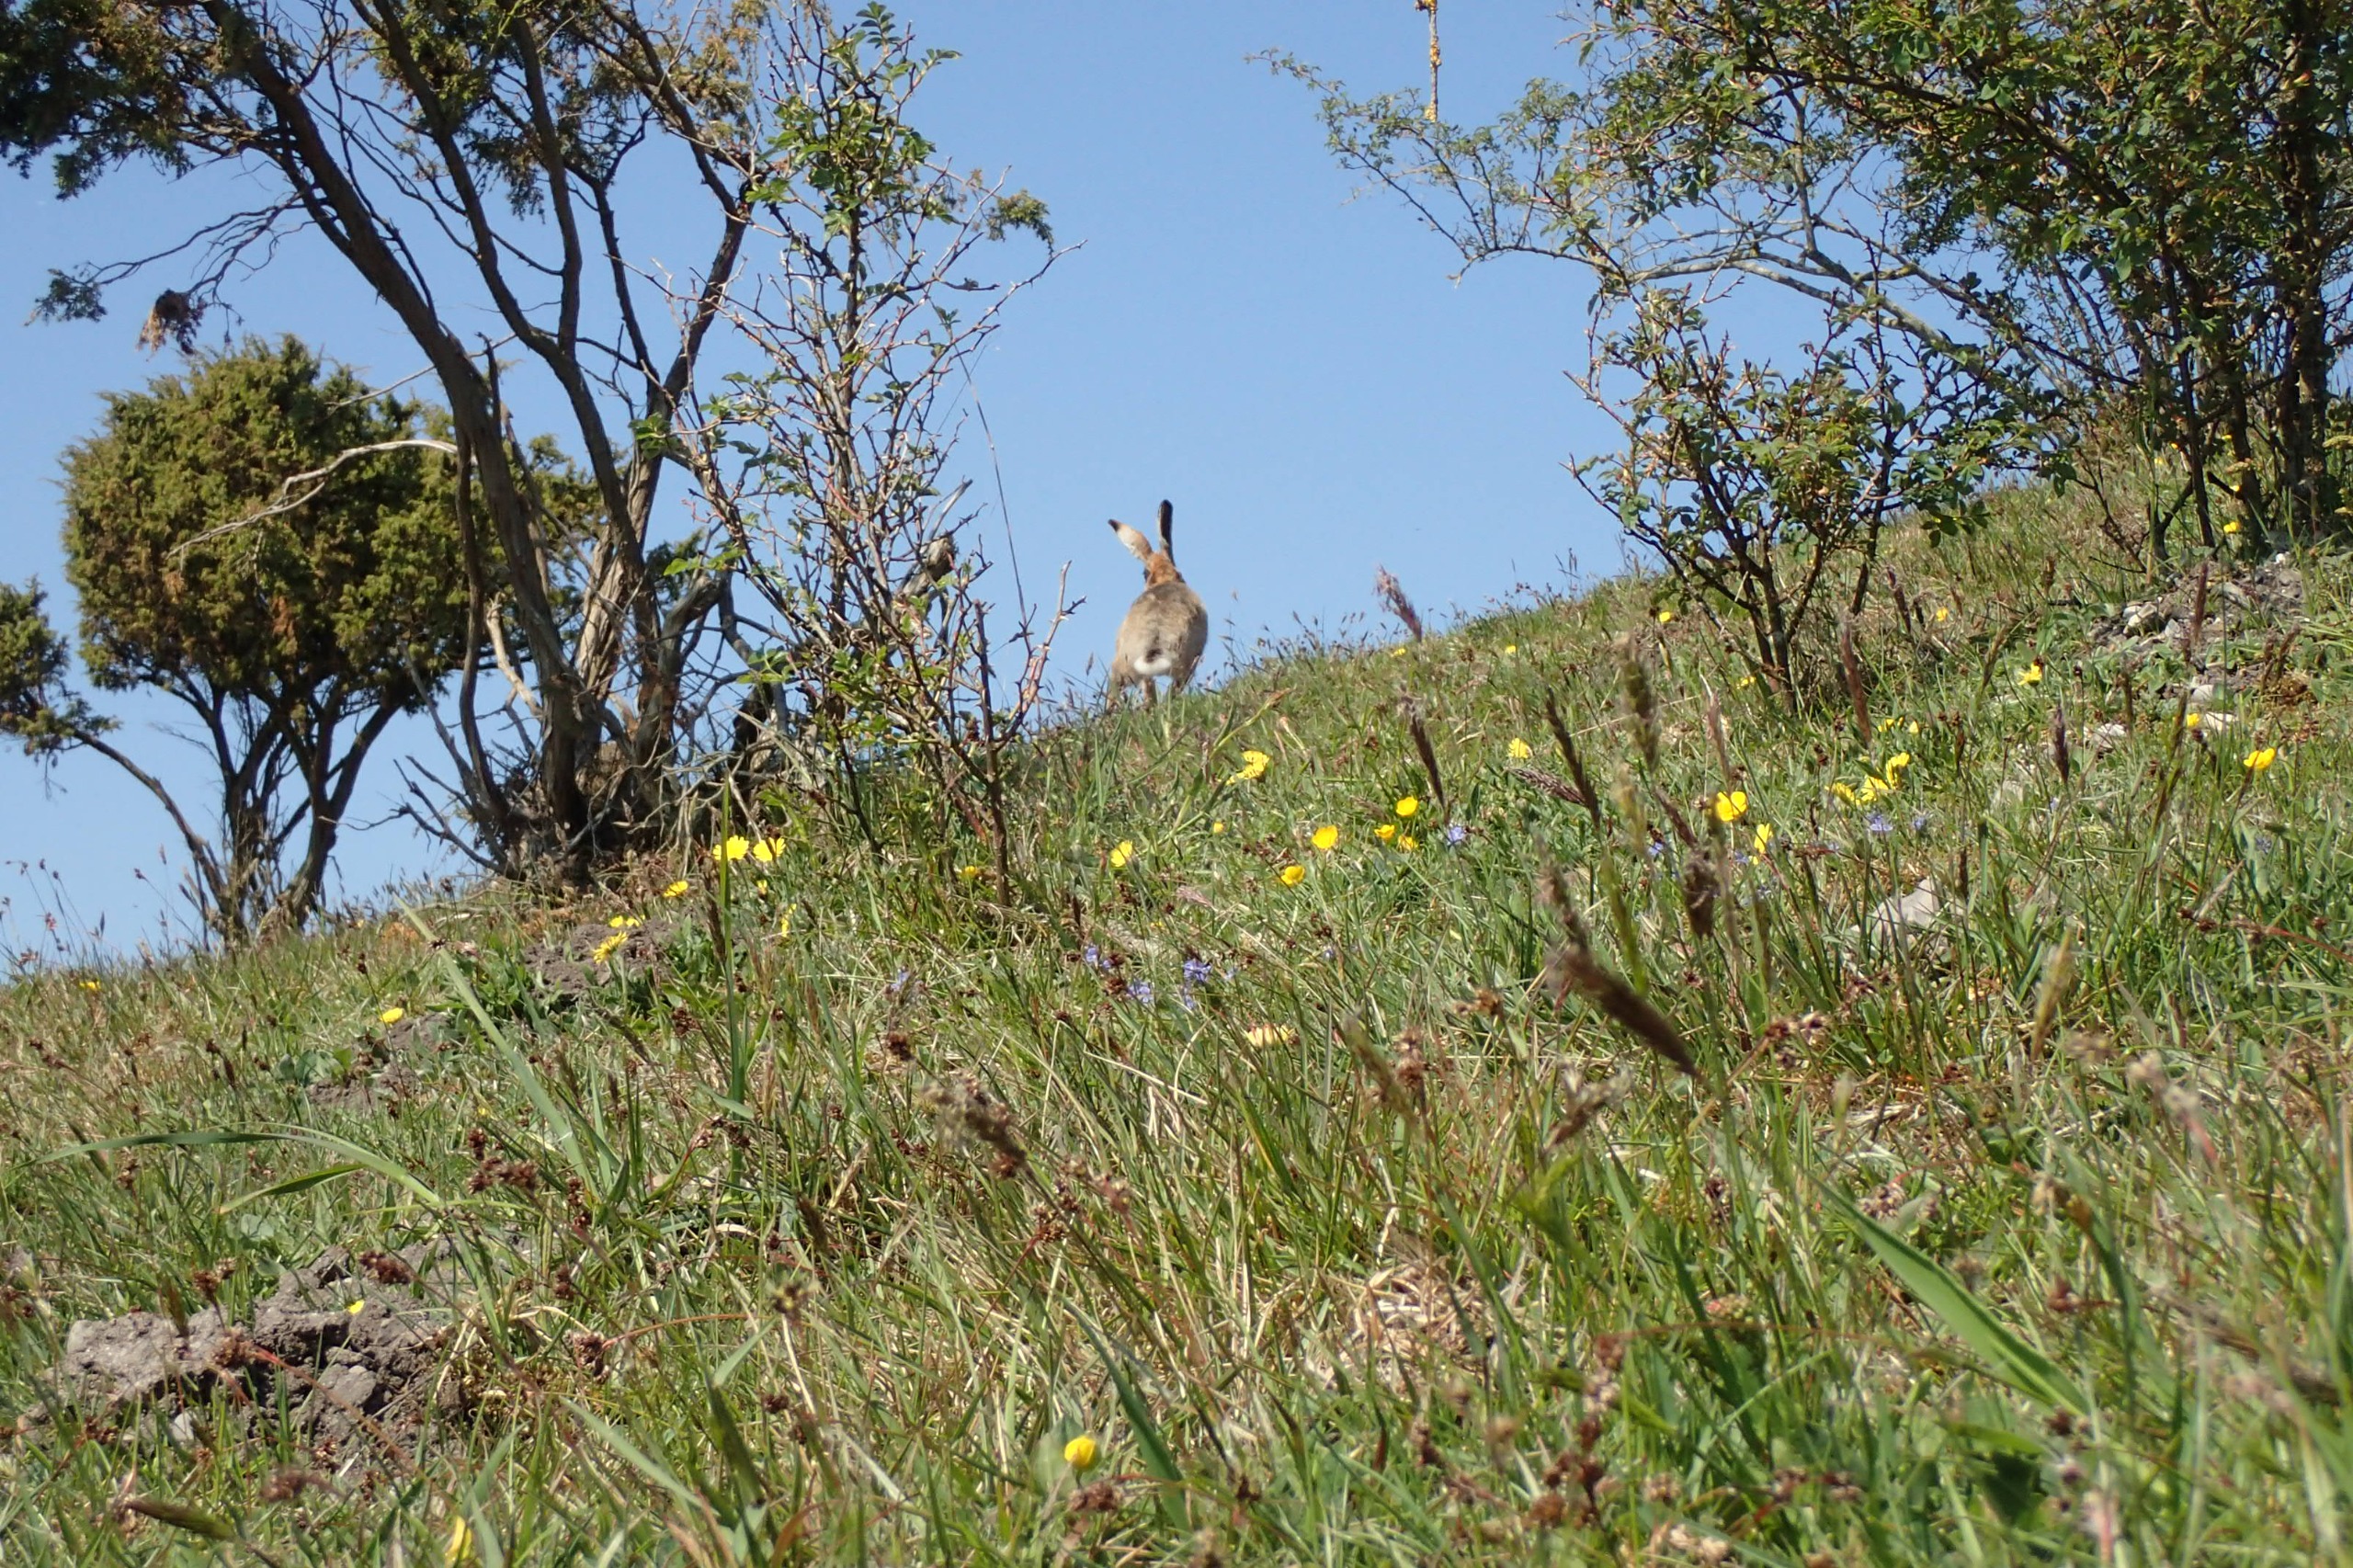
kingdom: Animalia
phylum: Chordata
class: Mammalia
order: Lagomorpha
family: Leporidae
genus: Lepus
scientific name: Lepus europaeus
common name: Hare
